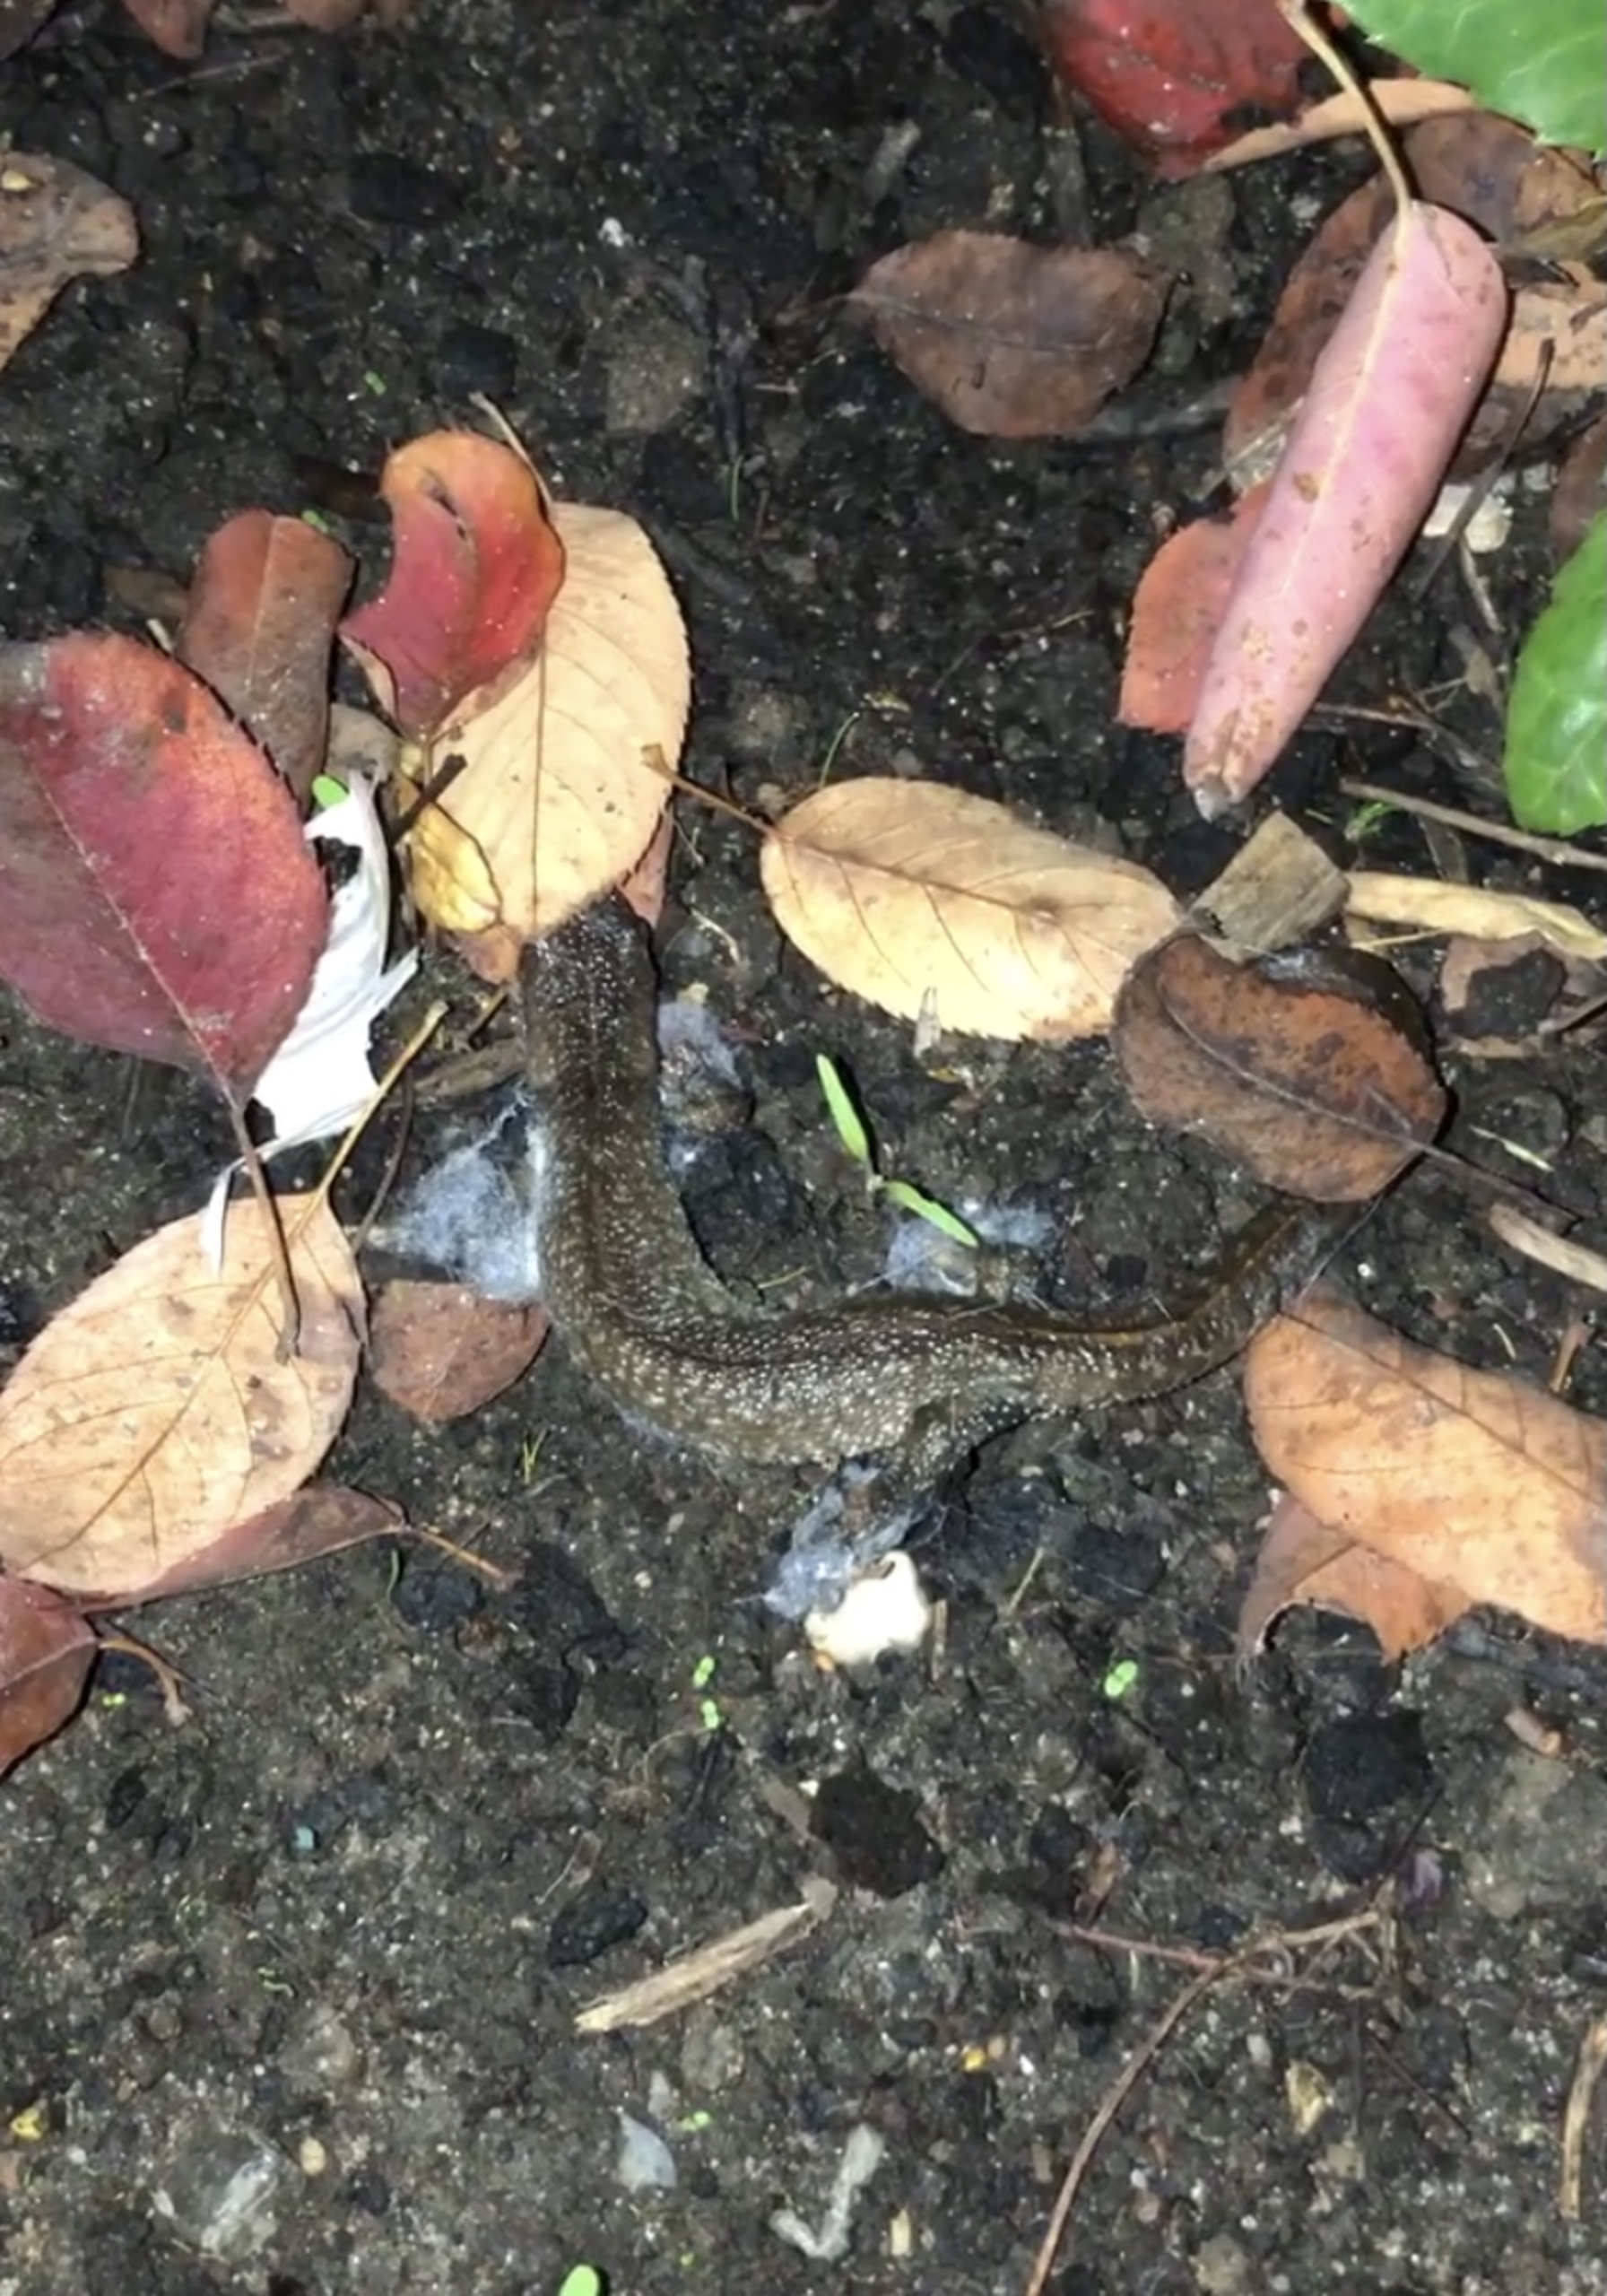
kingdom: Animalia
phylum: Chordata
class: Amphibia
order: Caudata
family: Salamandridae
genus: Triturus
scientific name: Triturus cristatus
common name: Stor vandsalamander
